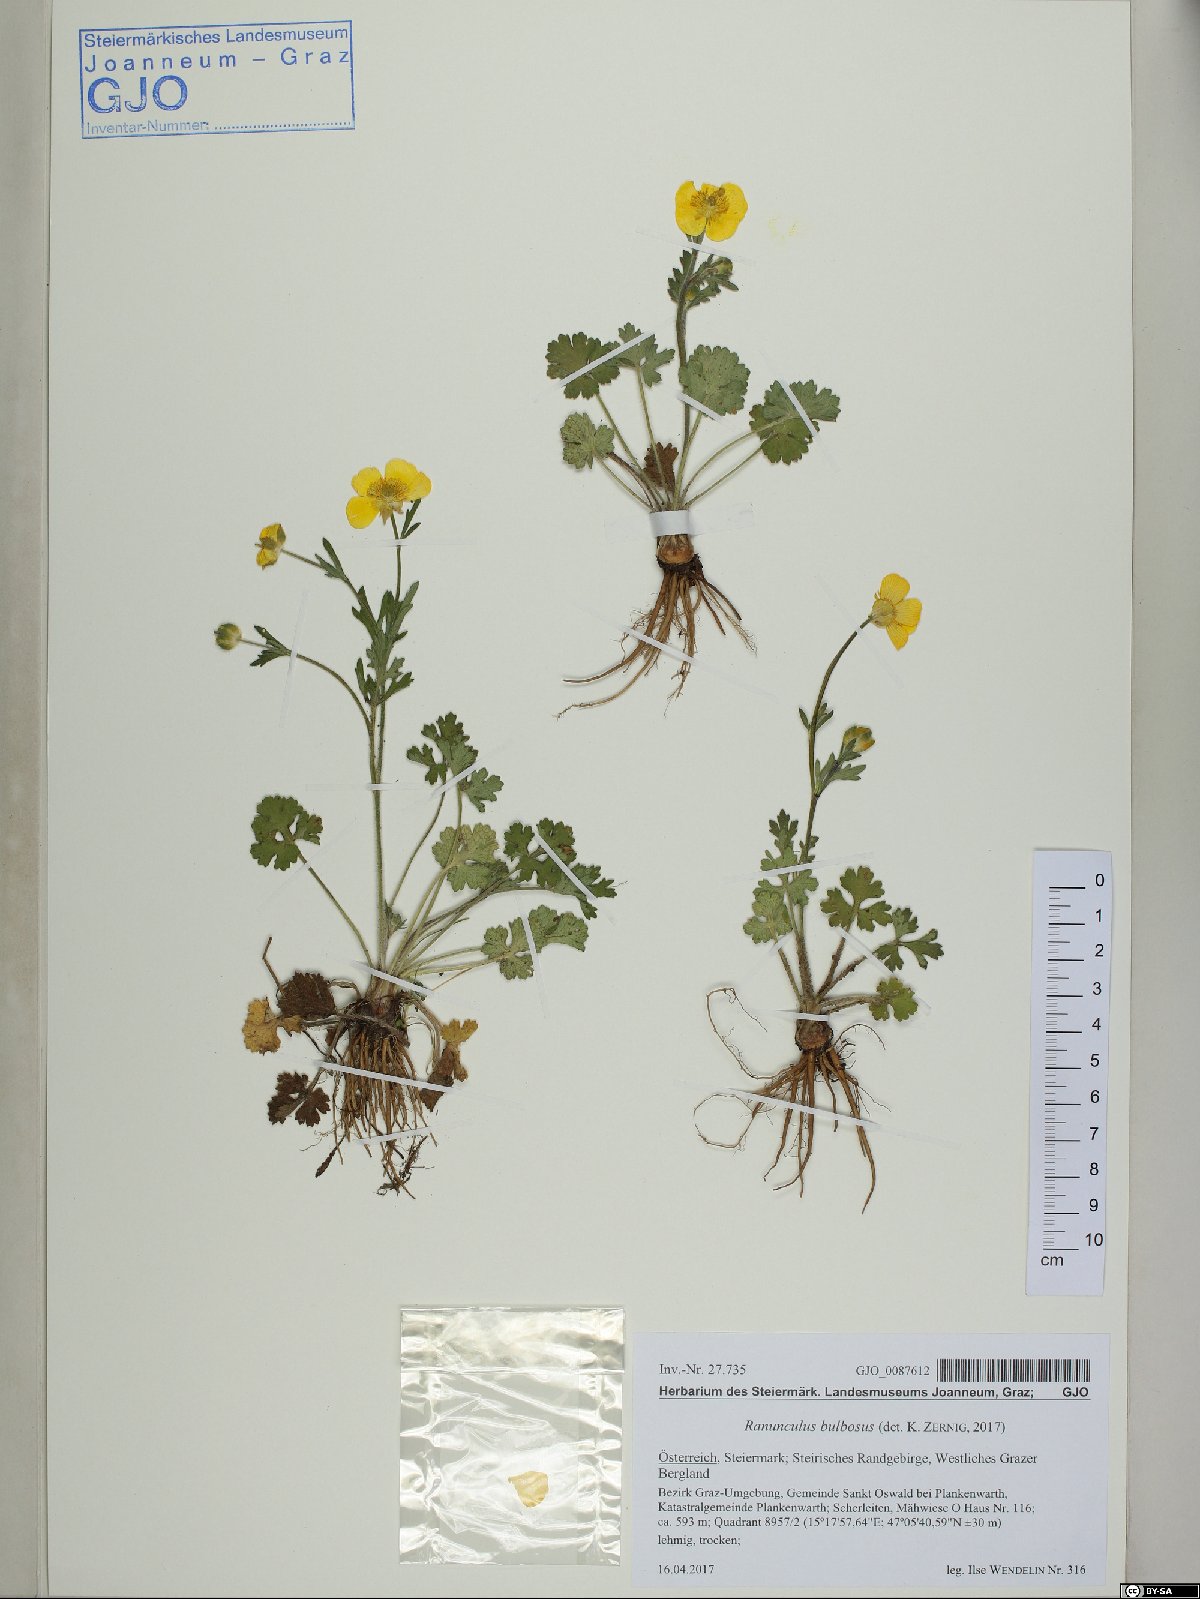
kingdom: Plantae
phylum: Tracheophyta
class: Magnoliopsida
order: Ranunculales
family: Ranunculaceae
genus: Ranunculus
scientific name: Ranunculus bulbosus
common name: Bulbous buttercup
